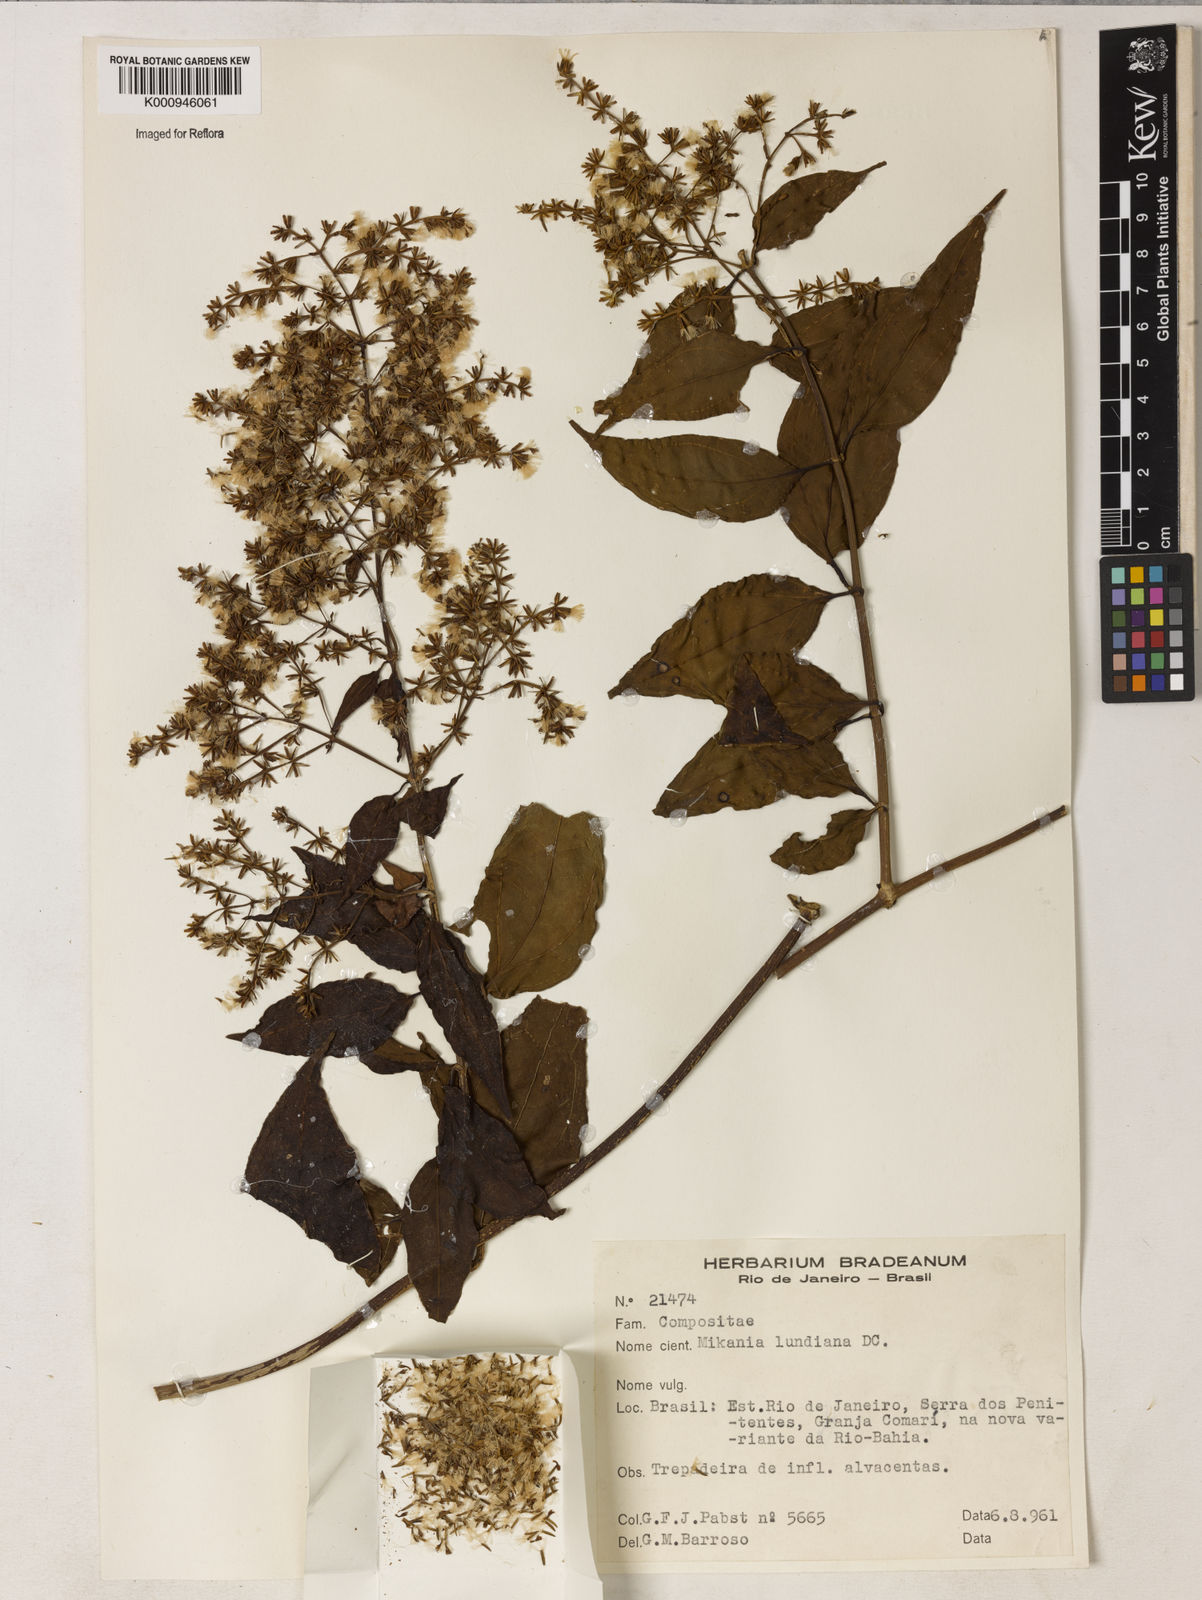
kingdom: Plantae
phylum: Tracheophyta
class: Magnoliopsida
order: Asterales
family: Asteraceae
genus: Mikania
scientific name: Mikania lundiana
